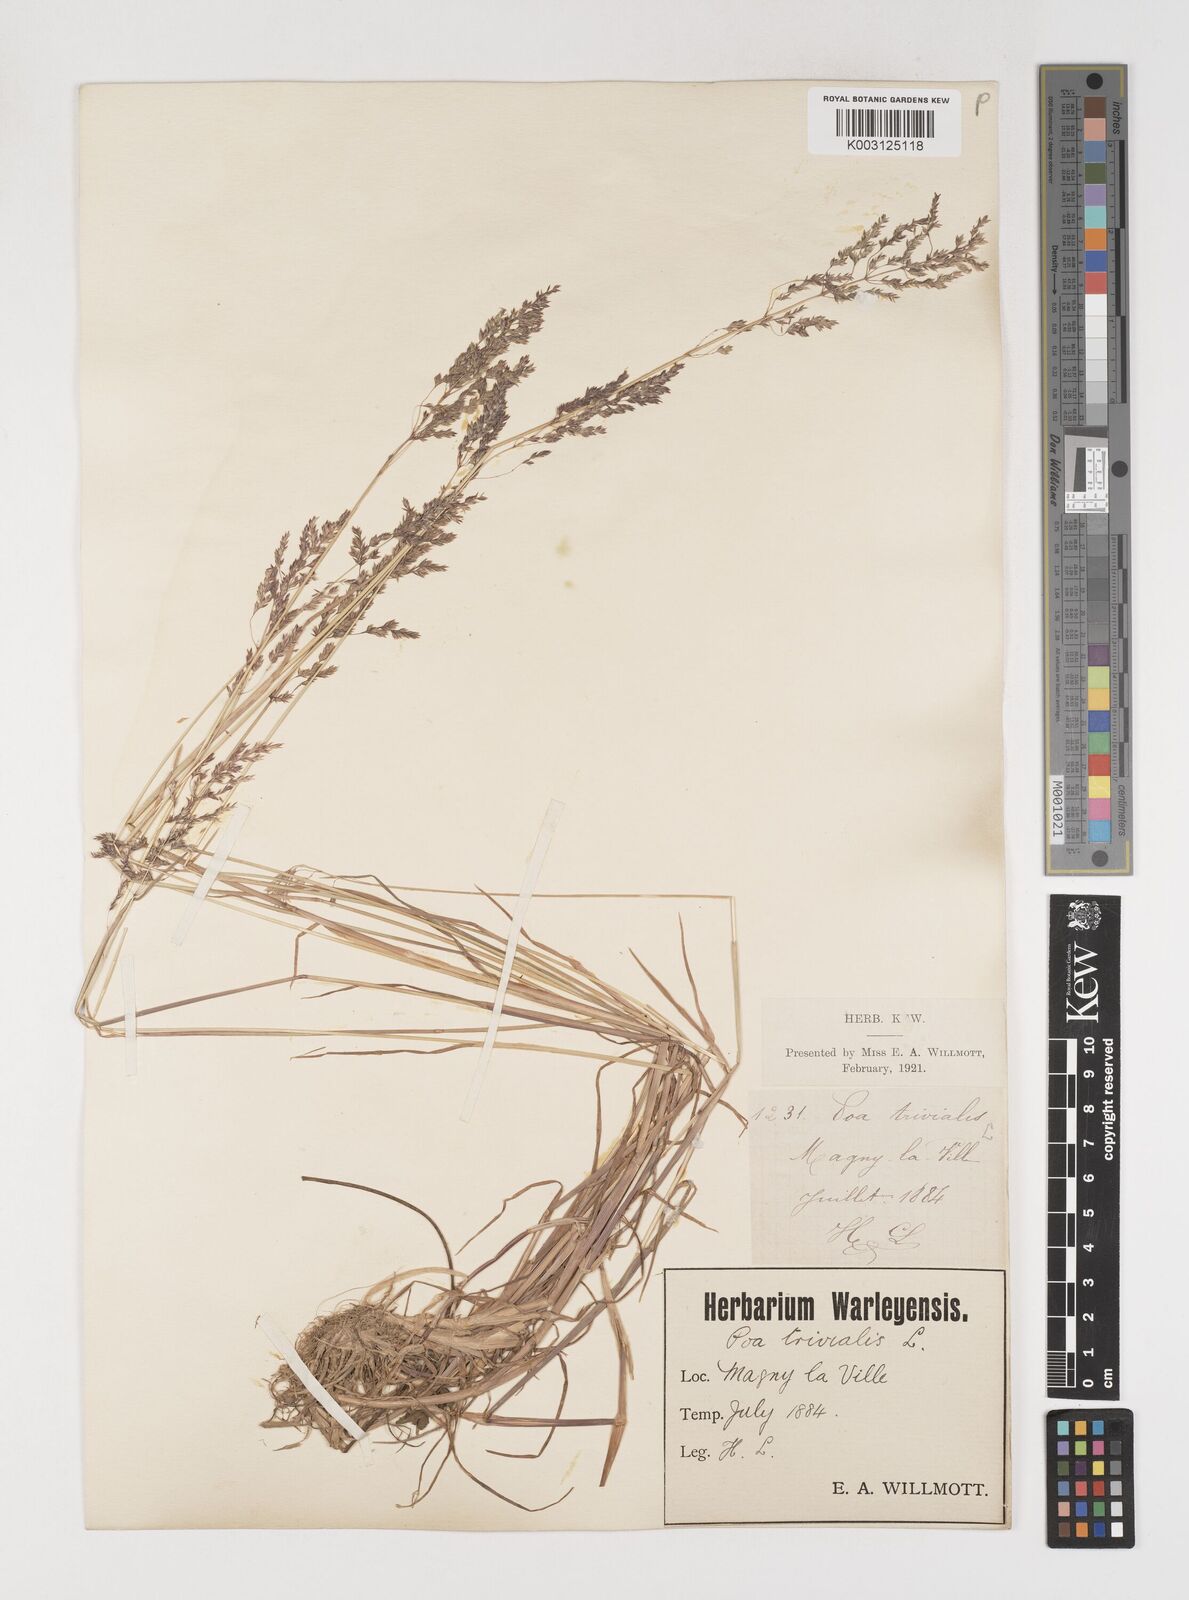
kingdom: Plantae
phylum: Tracheophyta
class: Liliopsida
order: Poales
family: Poaceae
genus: Poa
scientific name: Poa trivialis
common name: Rough bluegrass
